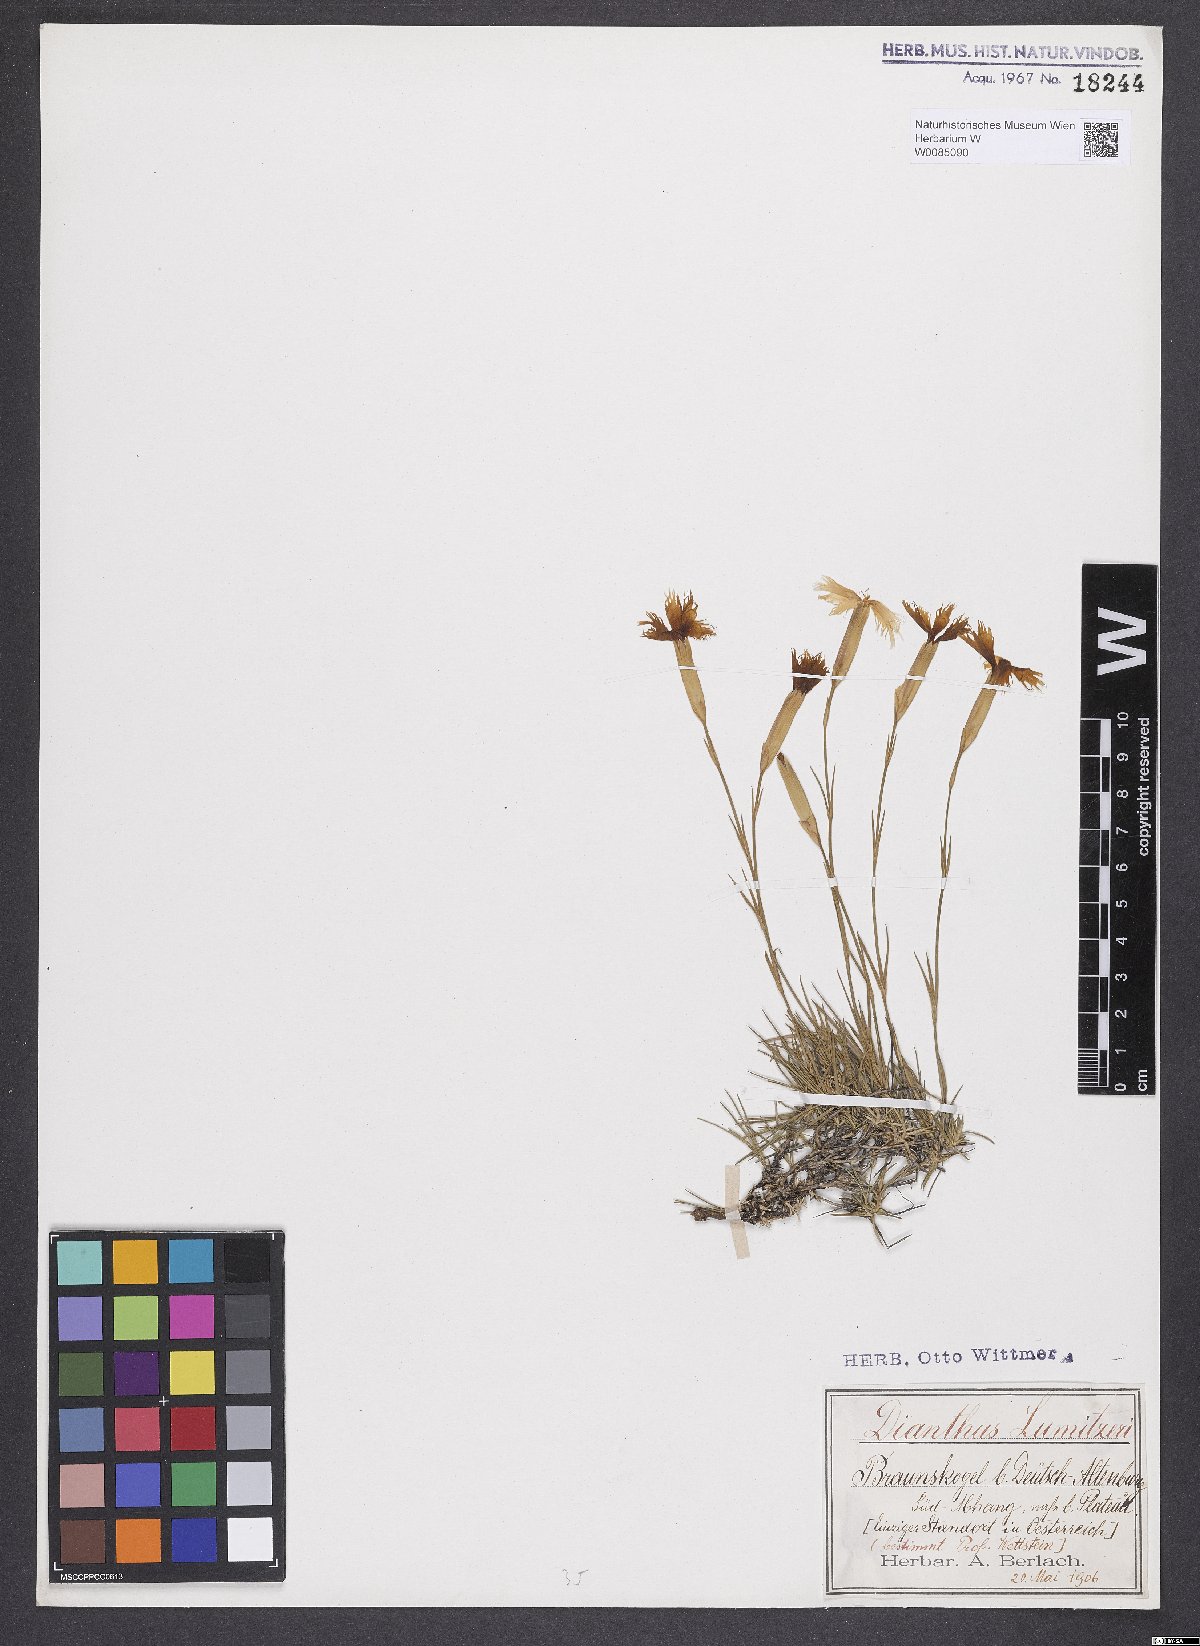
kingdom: Plantae
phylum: Tracheophyta
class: Magnoliopsida
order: Caryophyllales
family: Caryophyllaceae
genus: Dianthus
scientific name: Dianthus praecox
